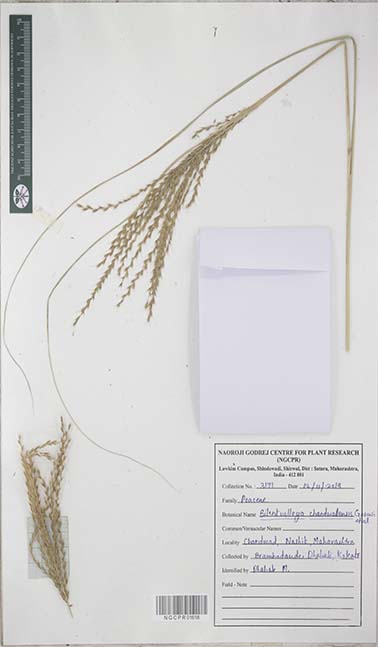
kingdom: Plantae
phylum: Tracheophyta
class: Liliopsida
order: Poales
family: Poaceae
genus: Silentvalleya
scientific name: Silentvalleya chandwadensis
